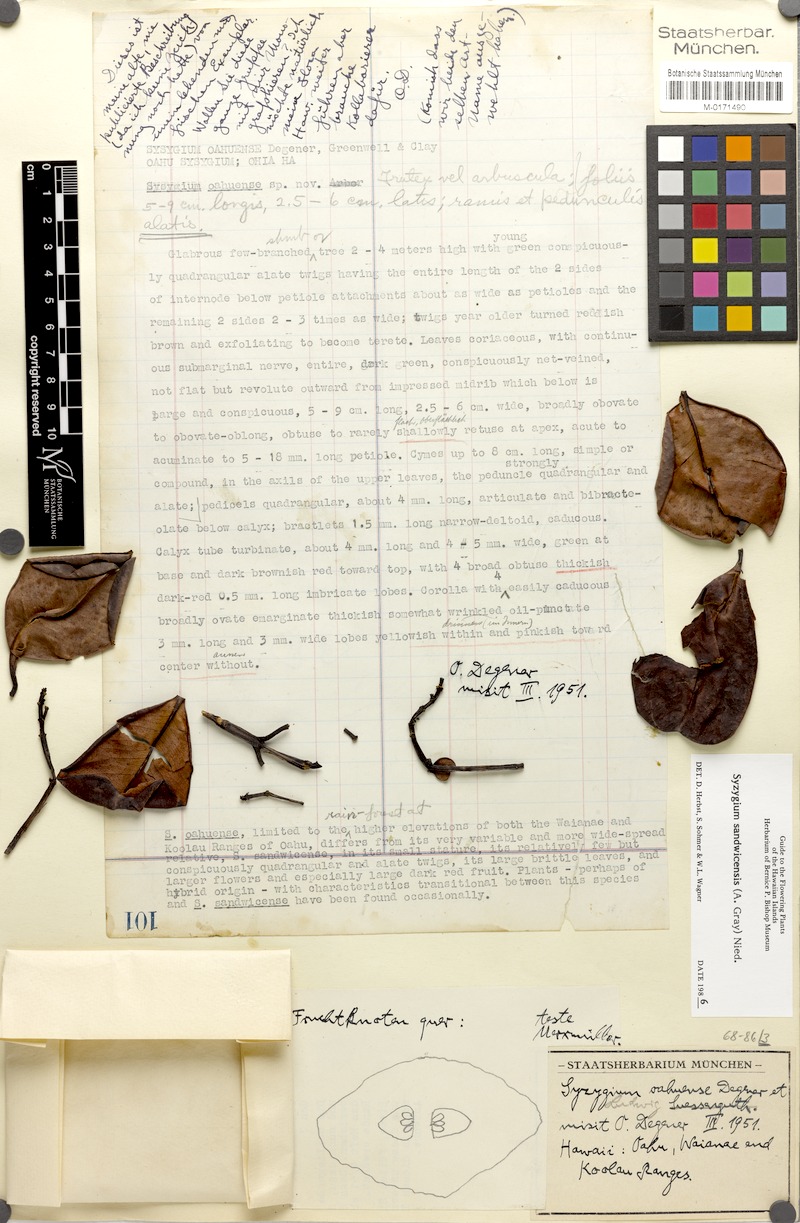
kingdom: Plantae
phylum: Tracheophyta
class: Magnoliopsida
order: Myrtales
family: Myrtaceae
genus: Syzygium
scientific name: Syzygium sandwicense
